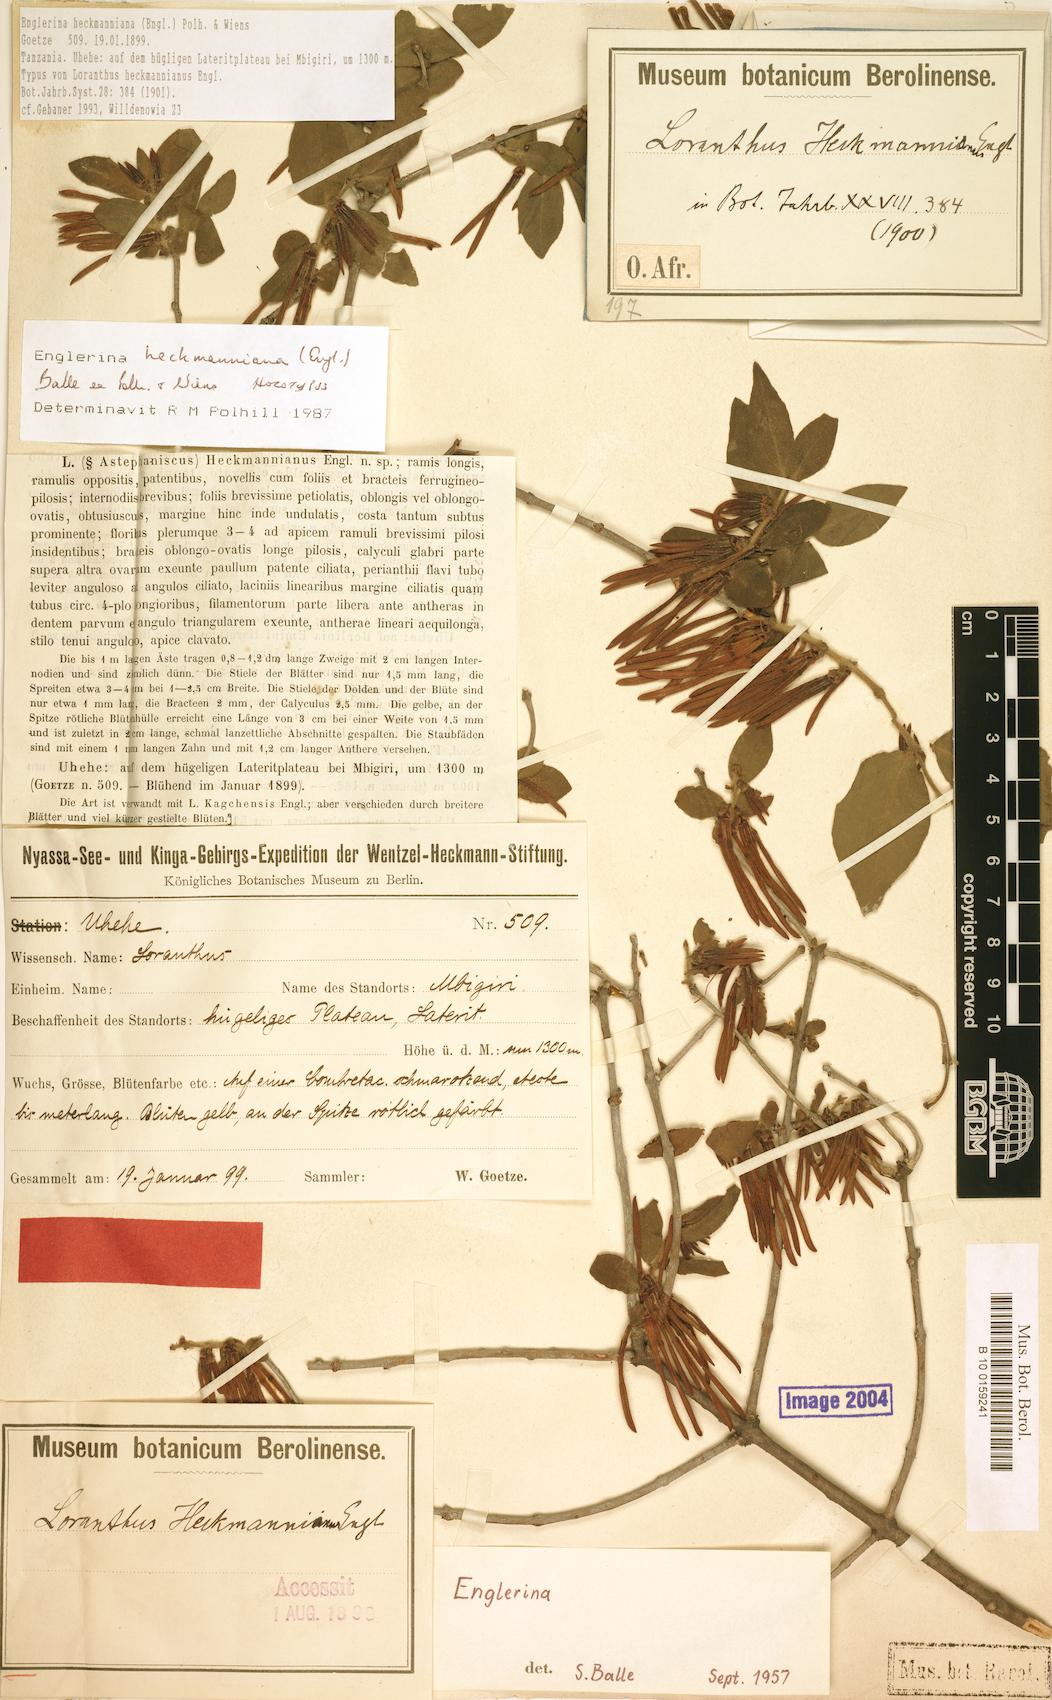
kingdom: Plantae
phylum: Tracheophyta
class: Magnoliopsida
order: Santalales
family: Loranthaceae
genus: Englerina
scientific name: Englerina heckmanniana
